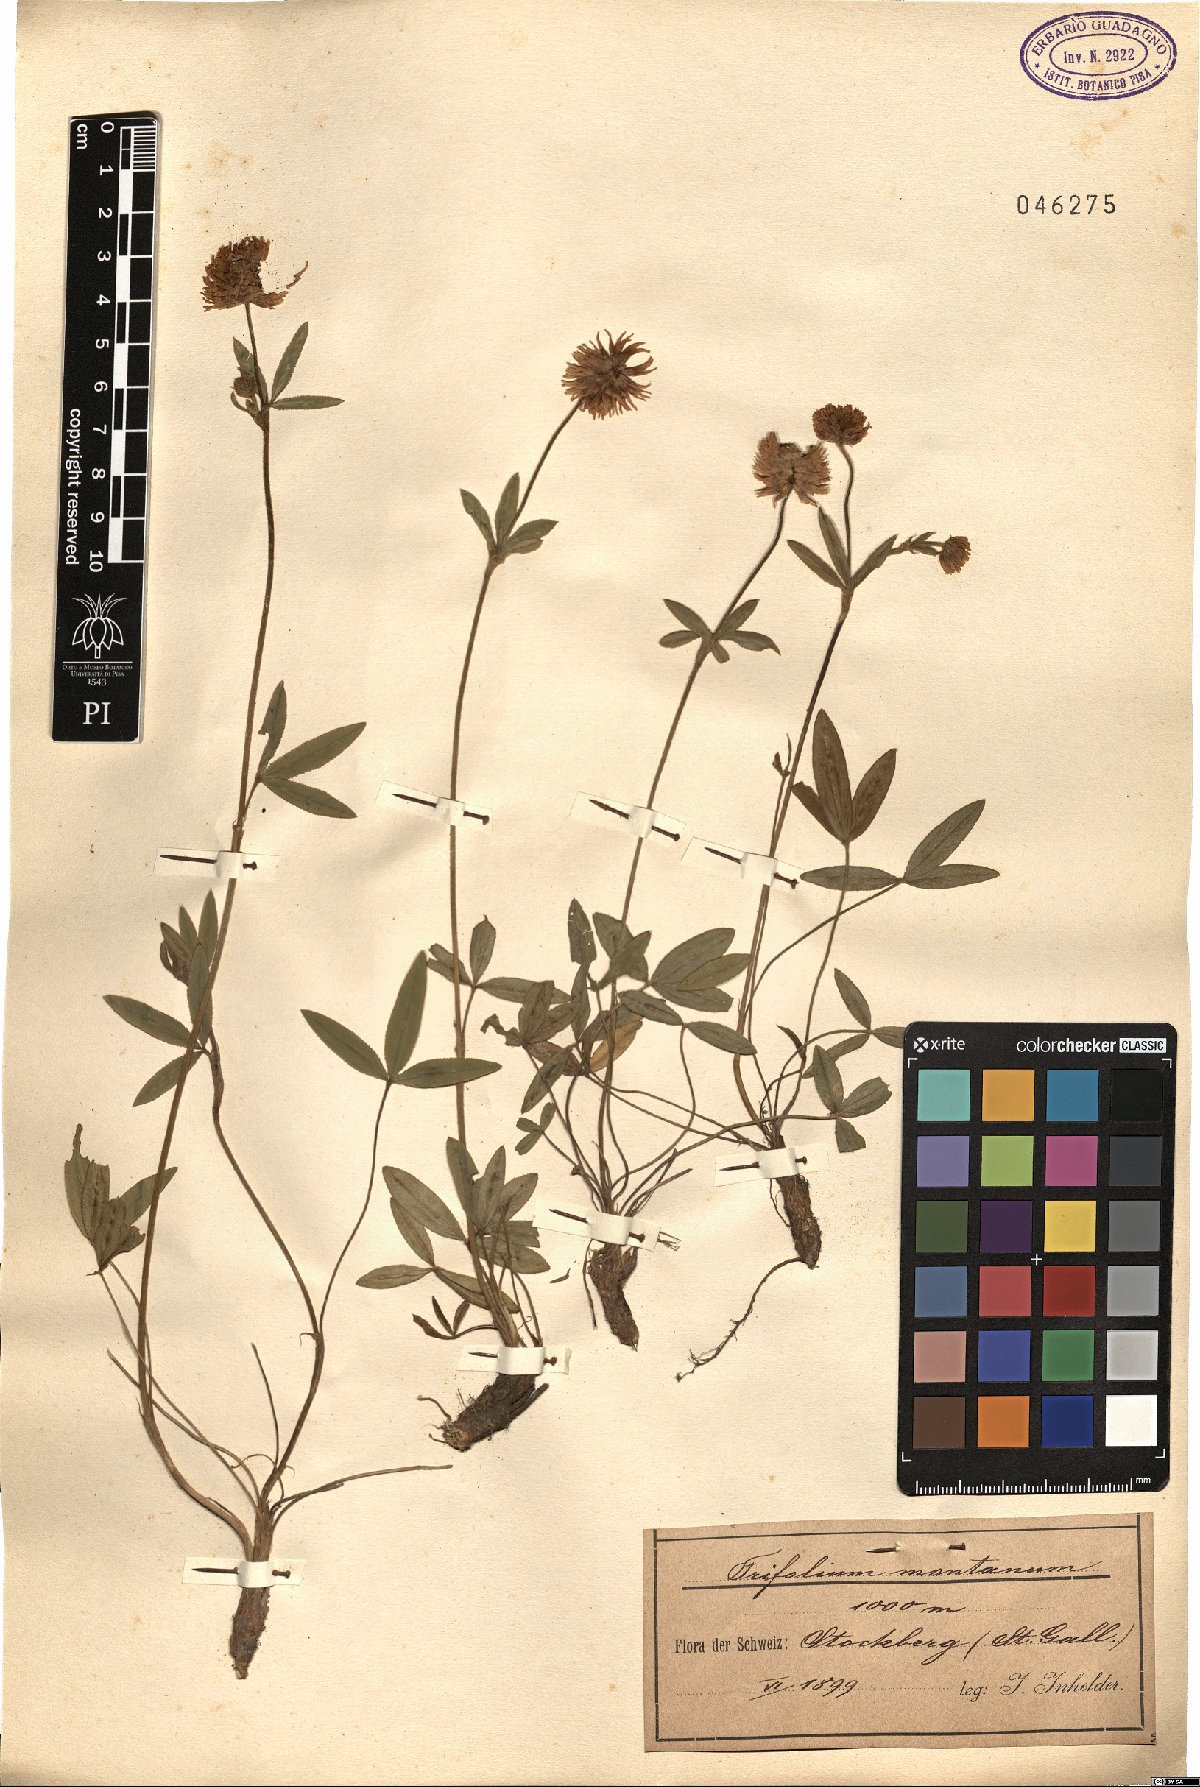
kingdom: Plantae
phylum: Tracheophyta
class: Magnoliopsida
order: Fabales
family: Fabaceae
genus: Trifolium
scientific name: Trifolium montanum
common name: Mountain clover
